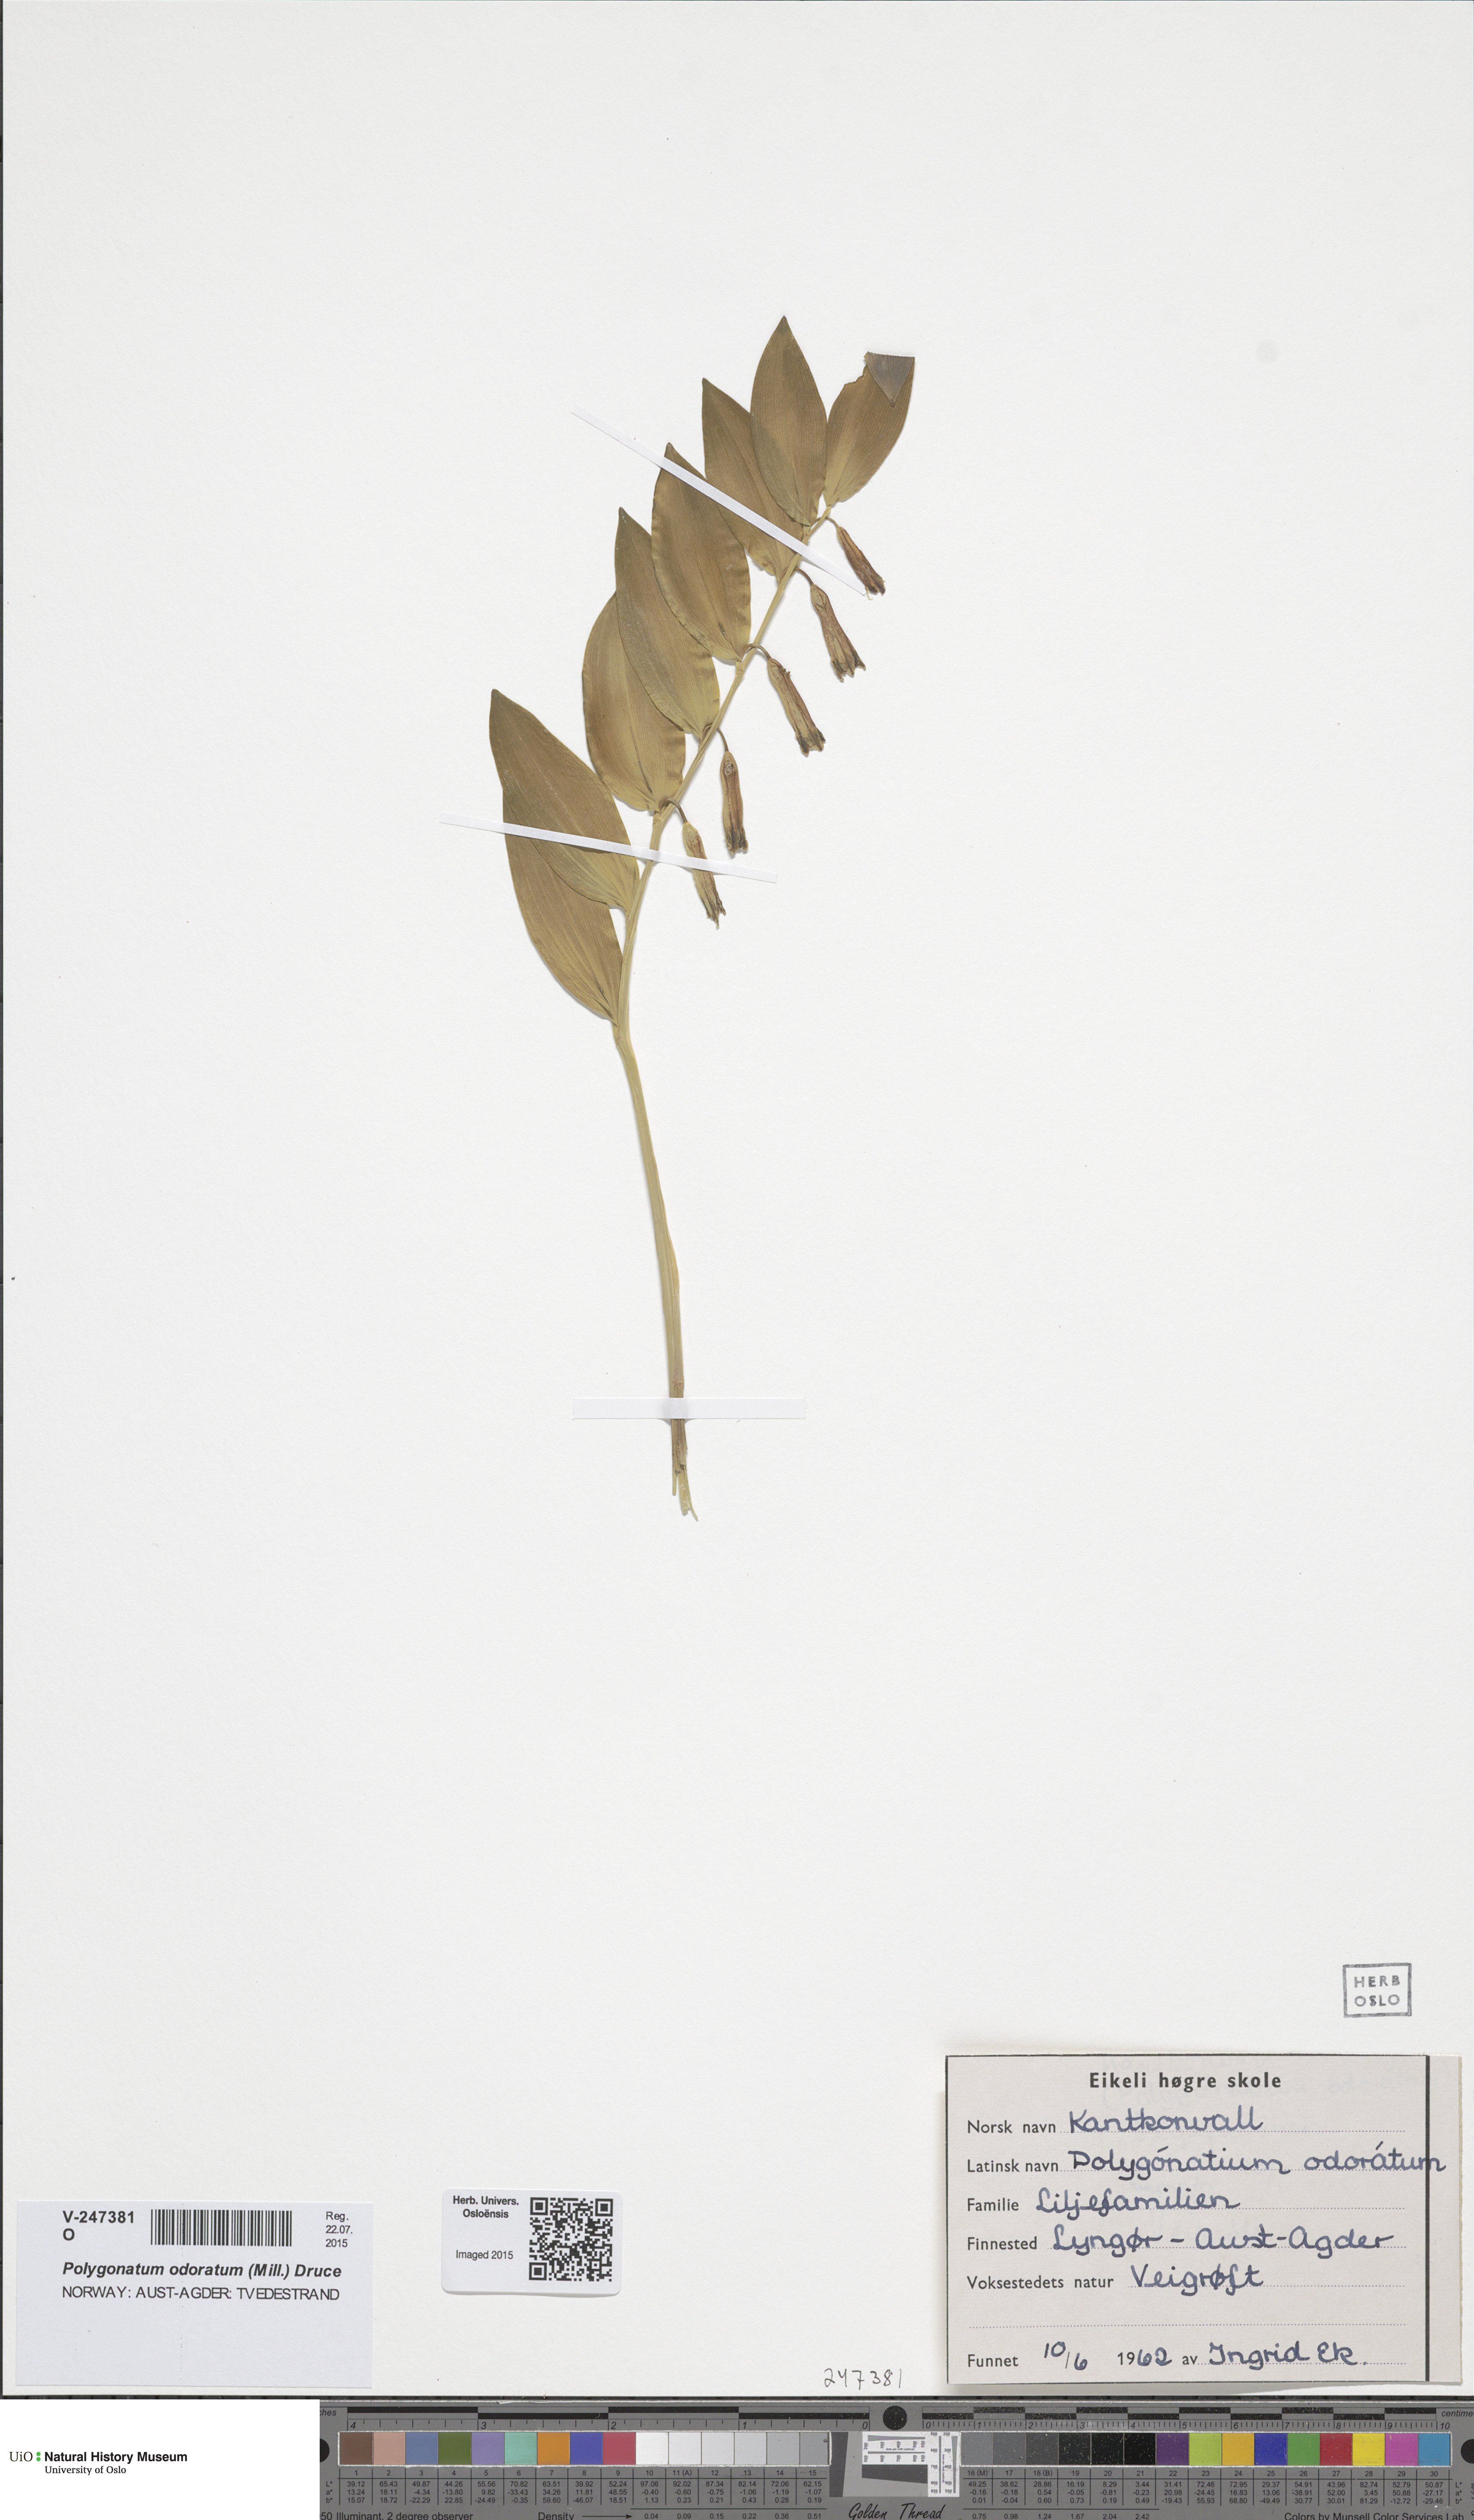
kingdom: Plantae
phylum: Tracheophyta
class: Liliopsida
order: Asparagales
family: Asparagaceae
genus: Polygonatum
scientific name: Polygonatum odoratum
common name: Angular solomon's-seal
